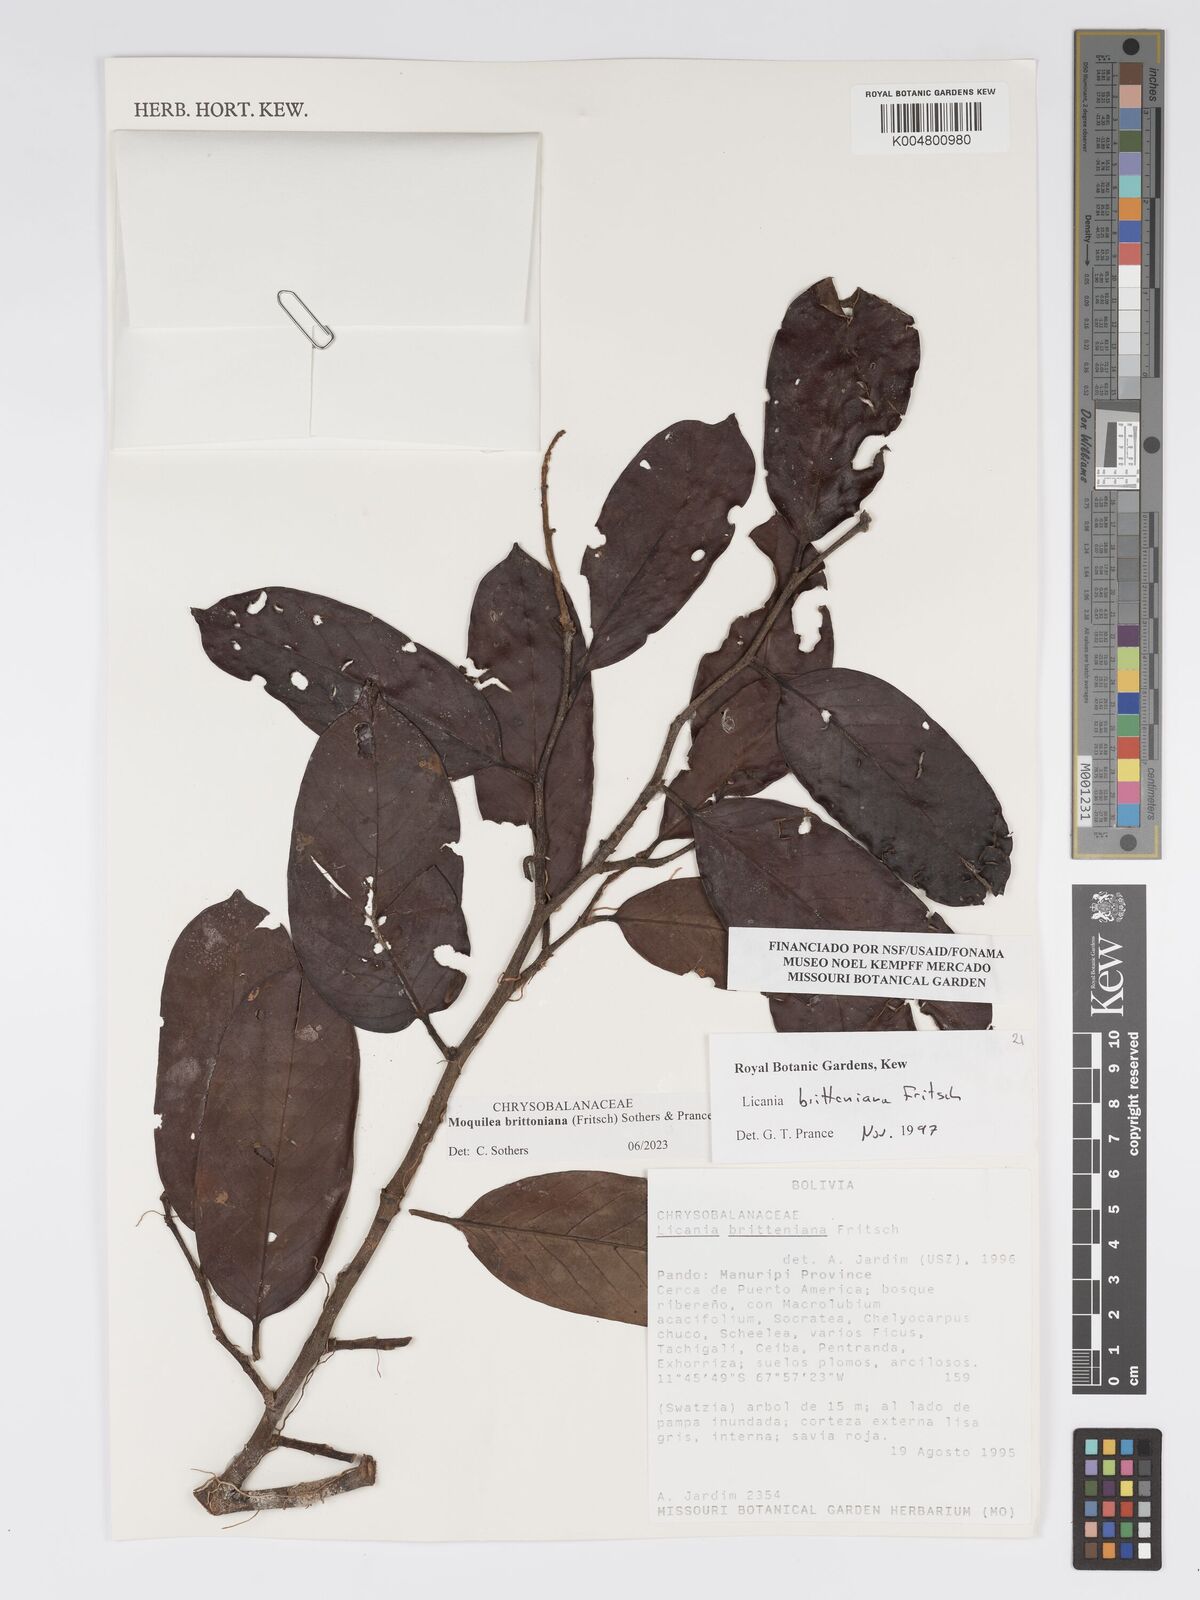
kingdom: Plantae
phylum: Tracheophyta
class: Magnoliopsida
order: Malpighiales
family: Chrysobalanaceae
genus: Moquilea
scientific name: Moquilea brittoniana
